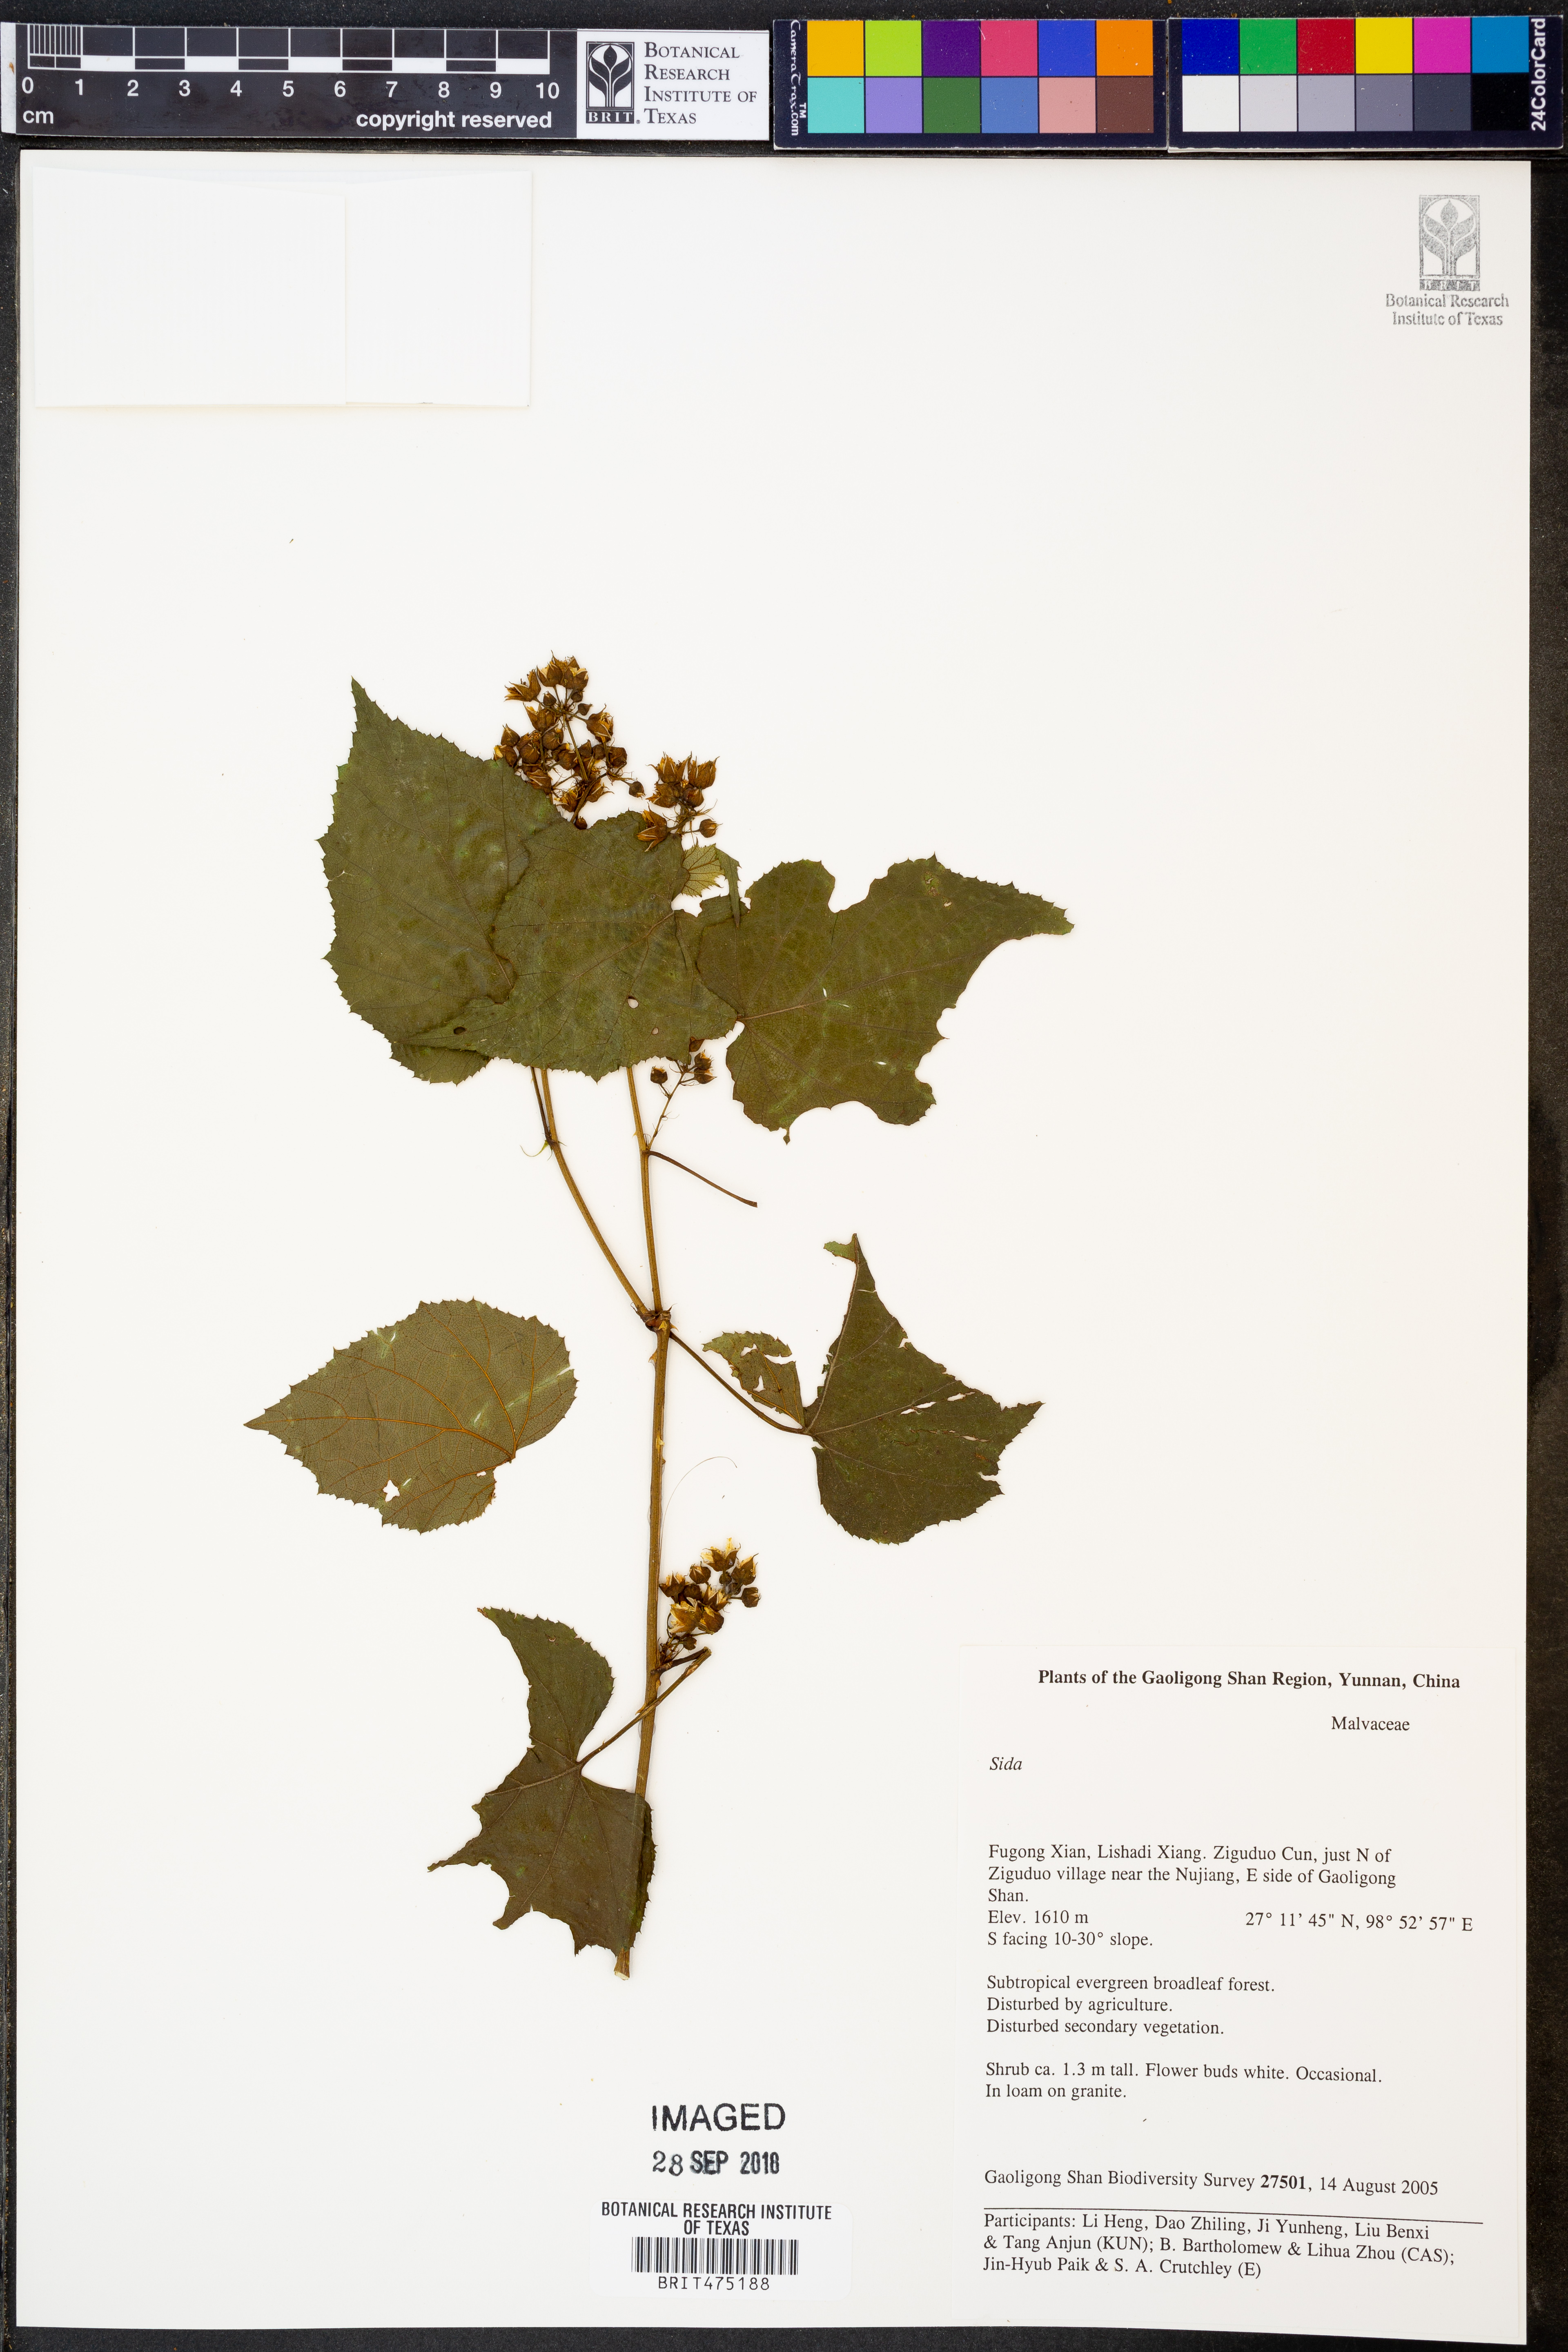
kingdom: Plantae
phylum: Tracheophyta
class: Magnoliopsida
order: Rosales
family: Rosaceae
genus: Rubus
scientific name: Rubus
